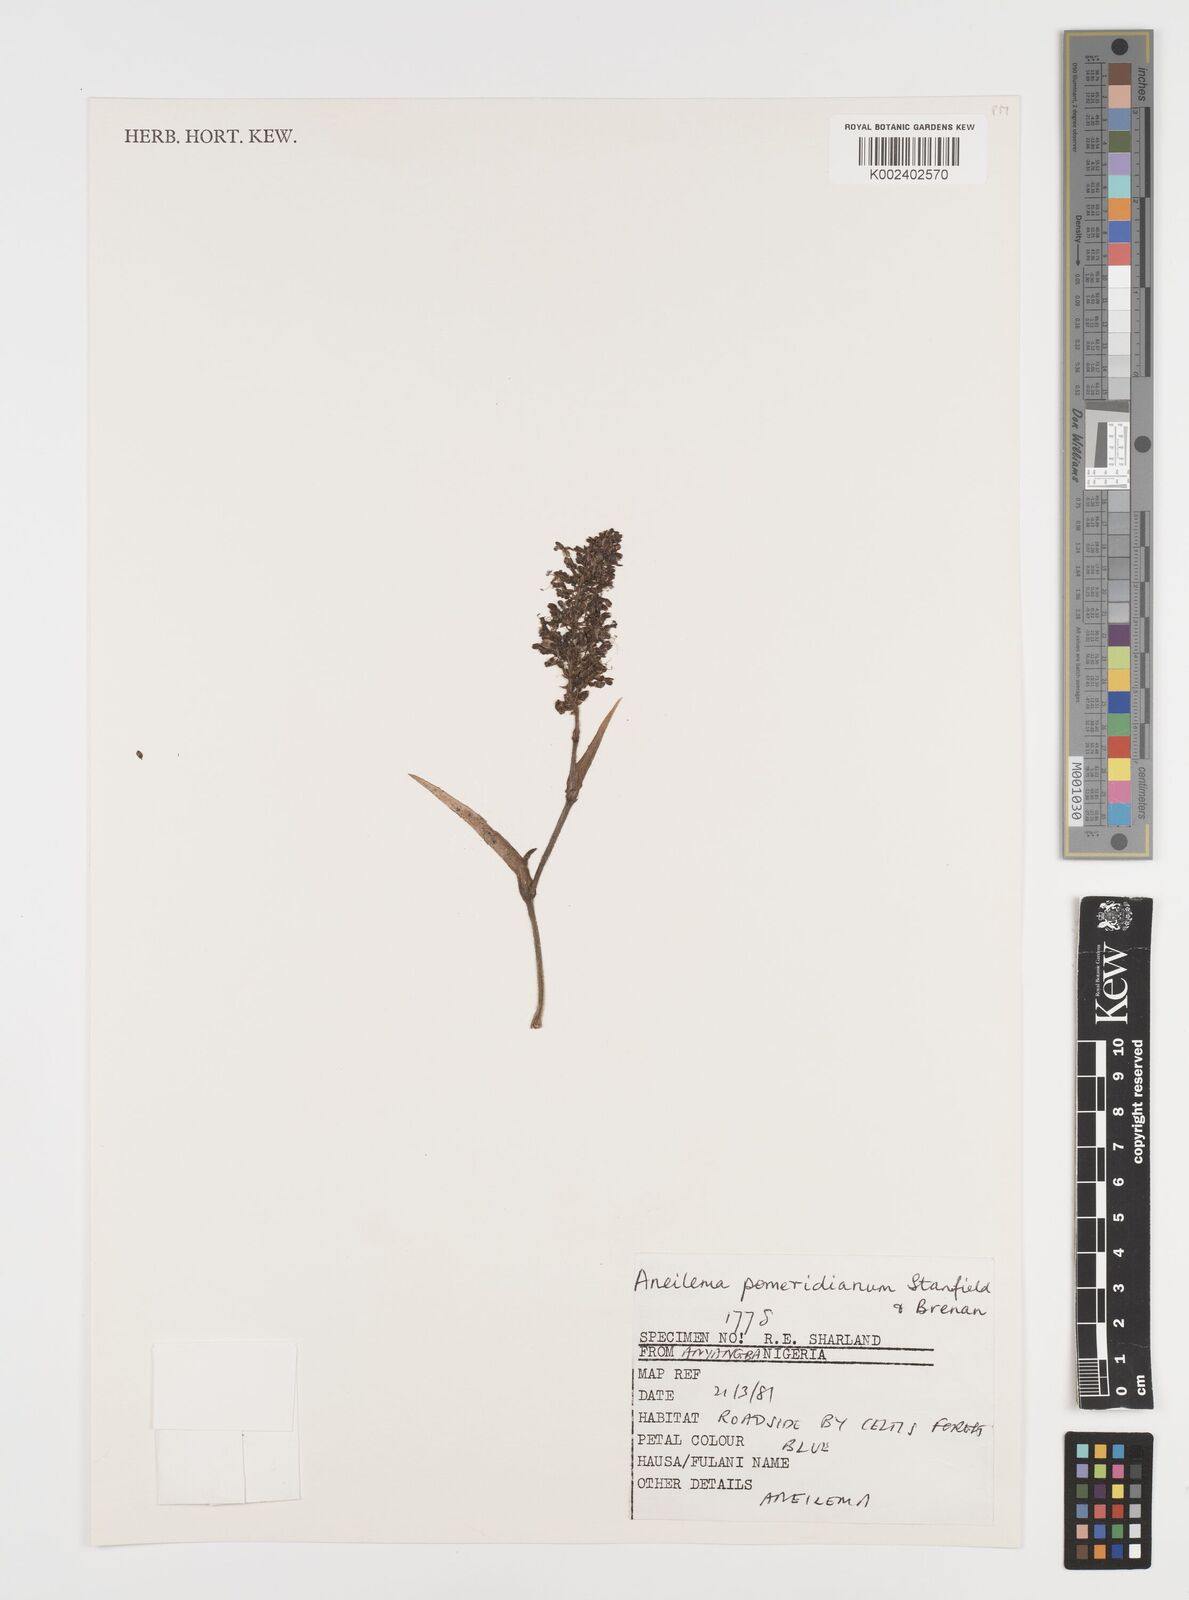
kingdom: Plantae
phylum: Tracheophyta
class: Liliopsida
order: Commelinales
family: Commelinaceae
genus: Aneilema
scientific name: Aneilema pomeridianum
